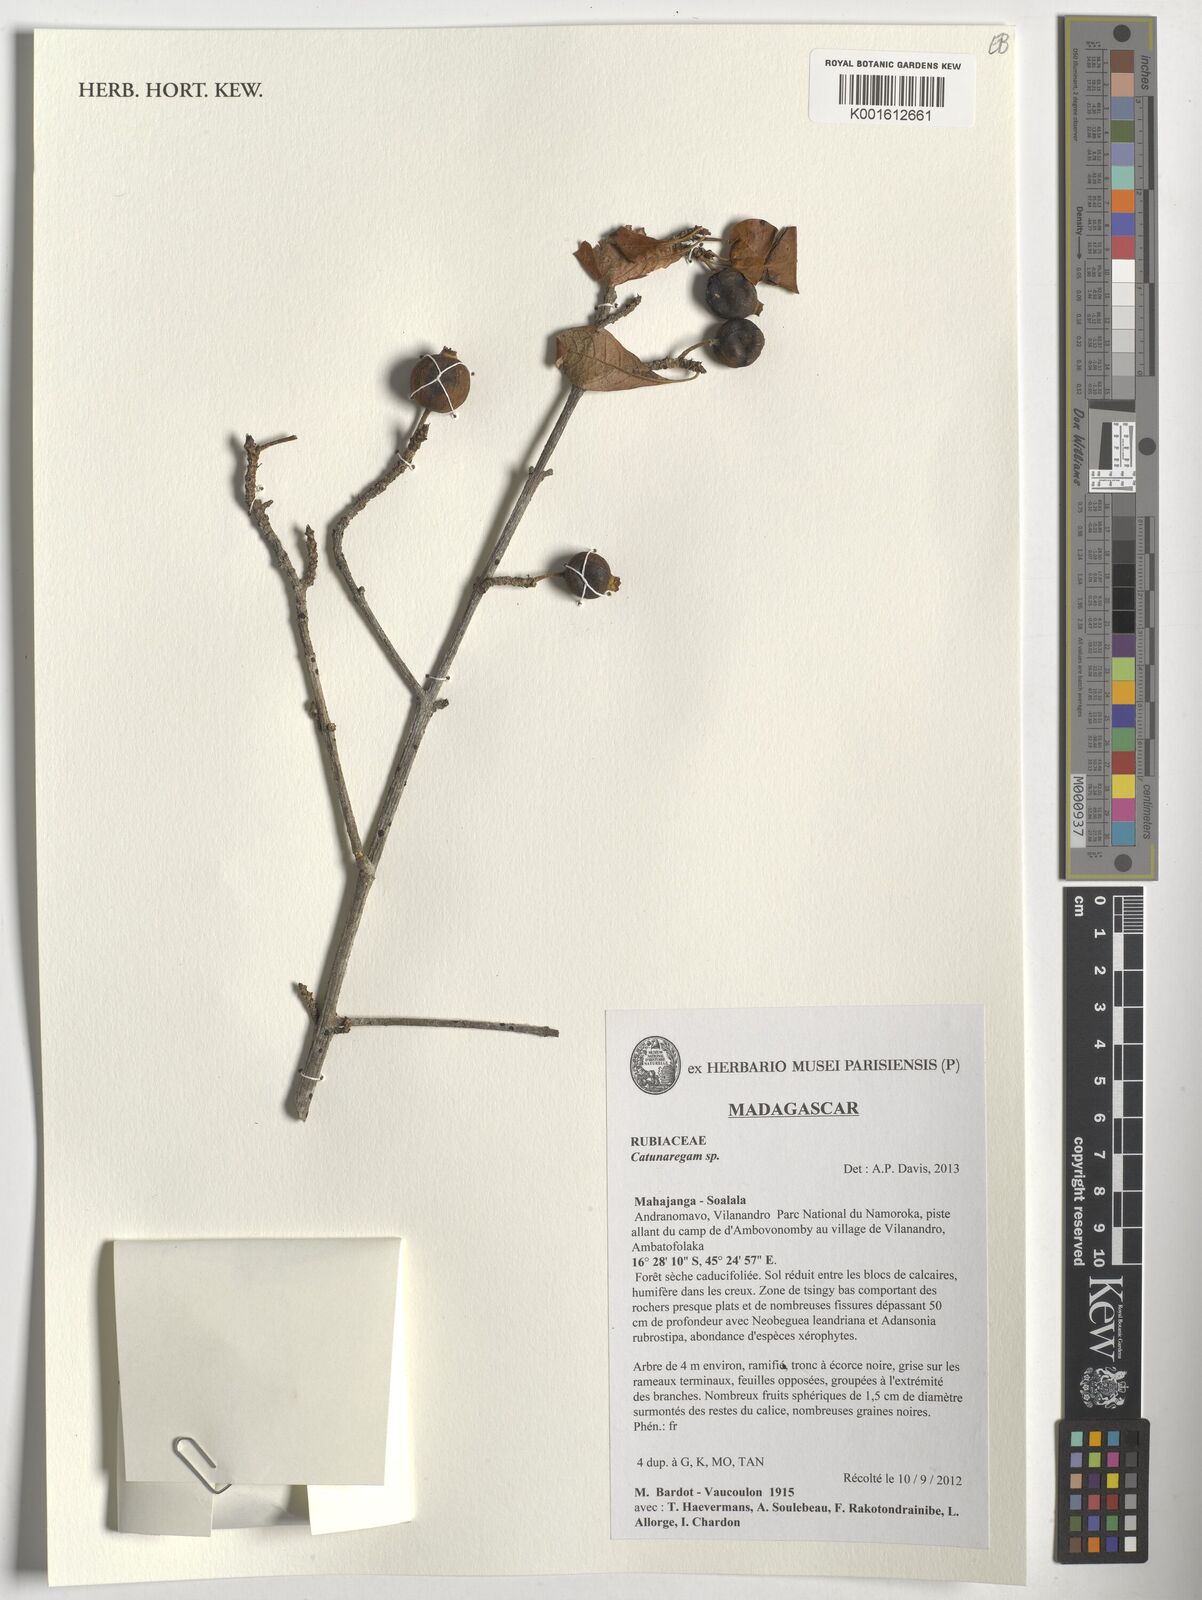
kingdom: Plantae
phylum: Tracheophyta
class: Magnoliopsida
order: Gentianales
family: Rubiaceae
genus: Catunaregam
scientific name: Catunaregam
